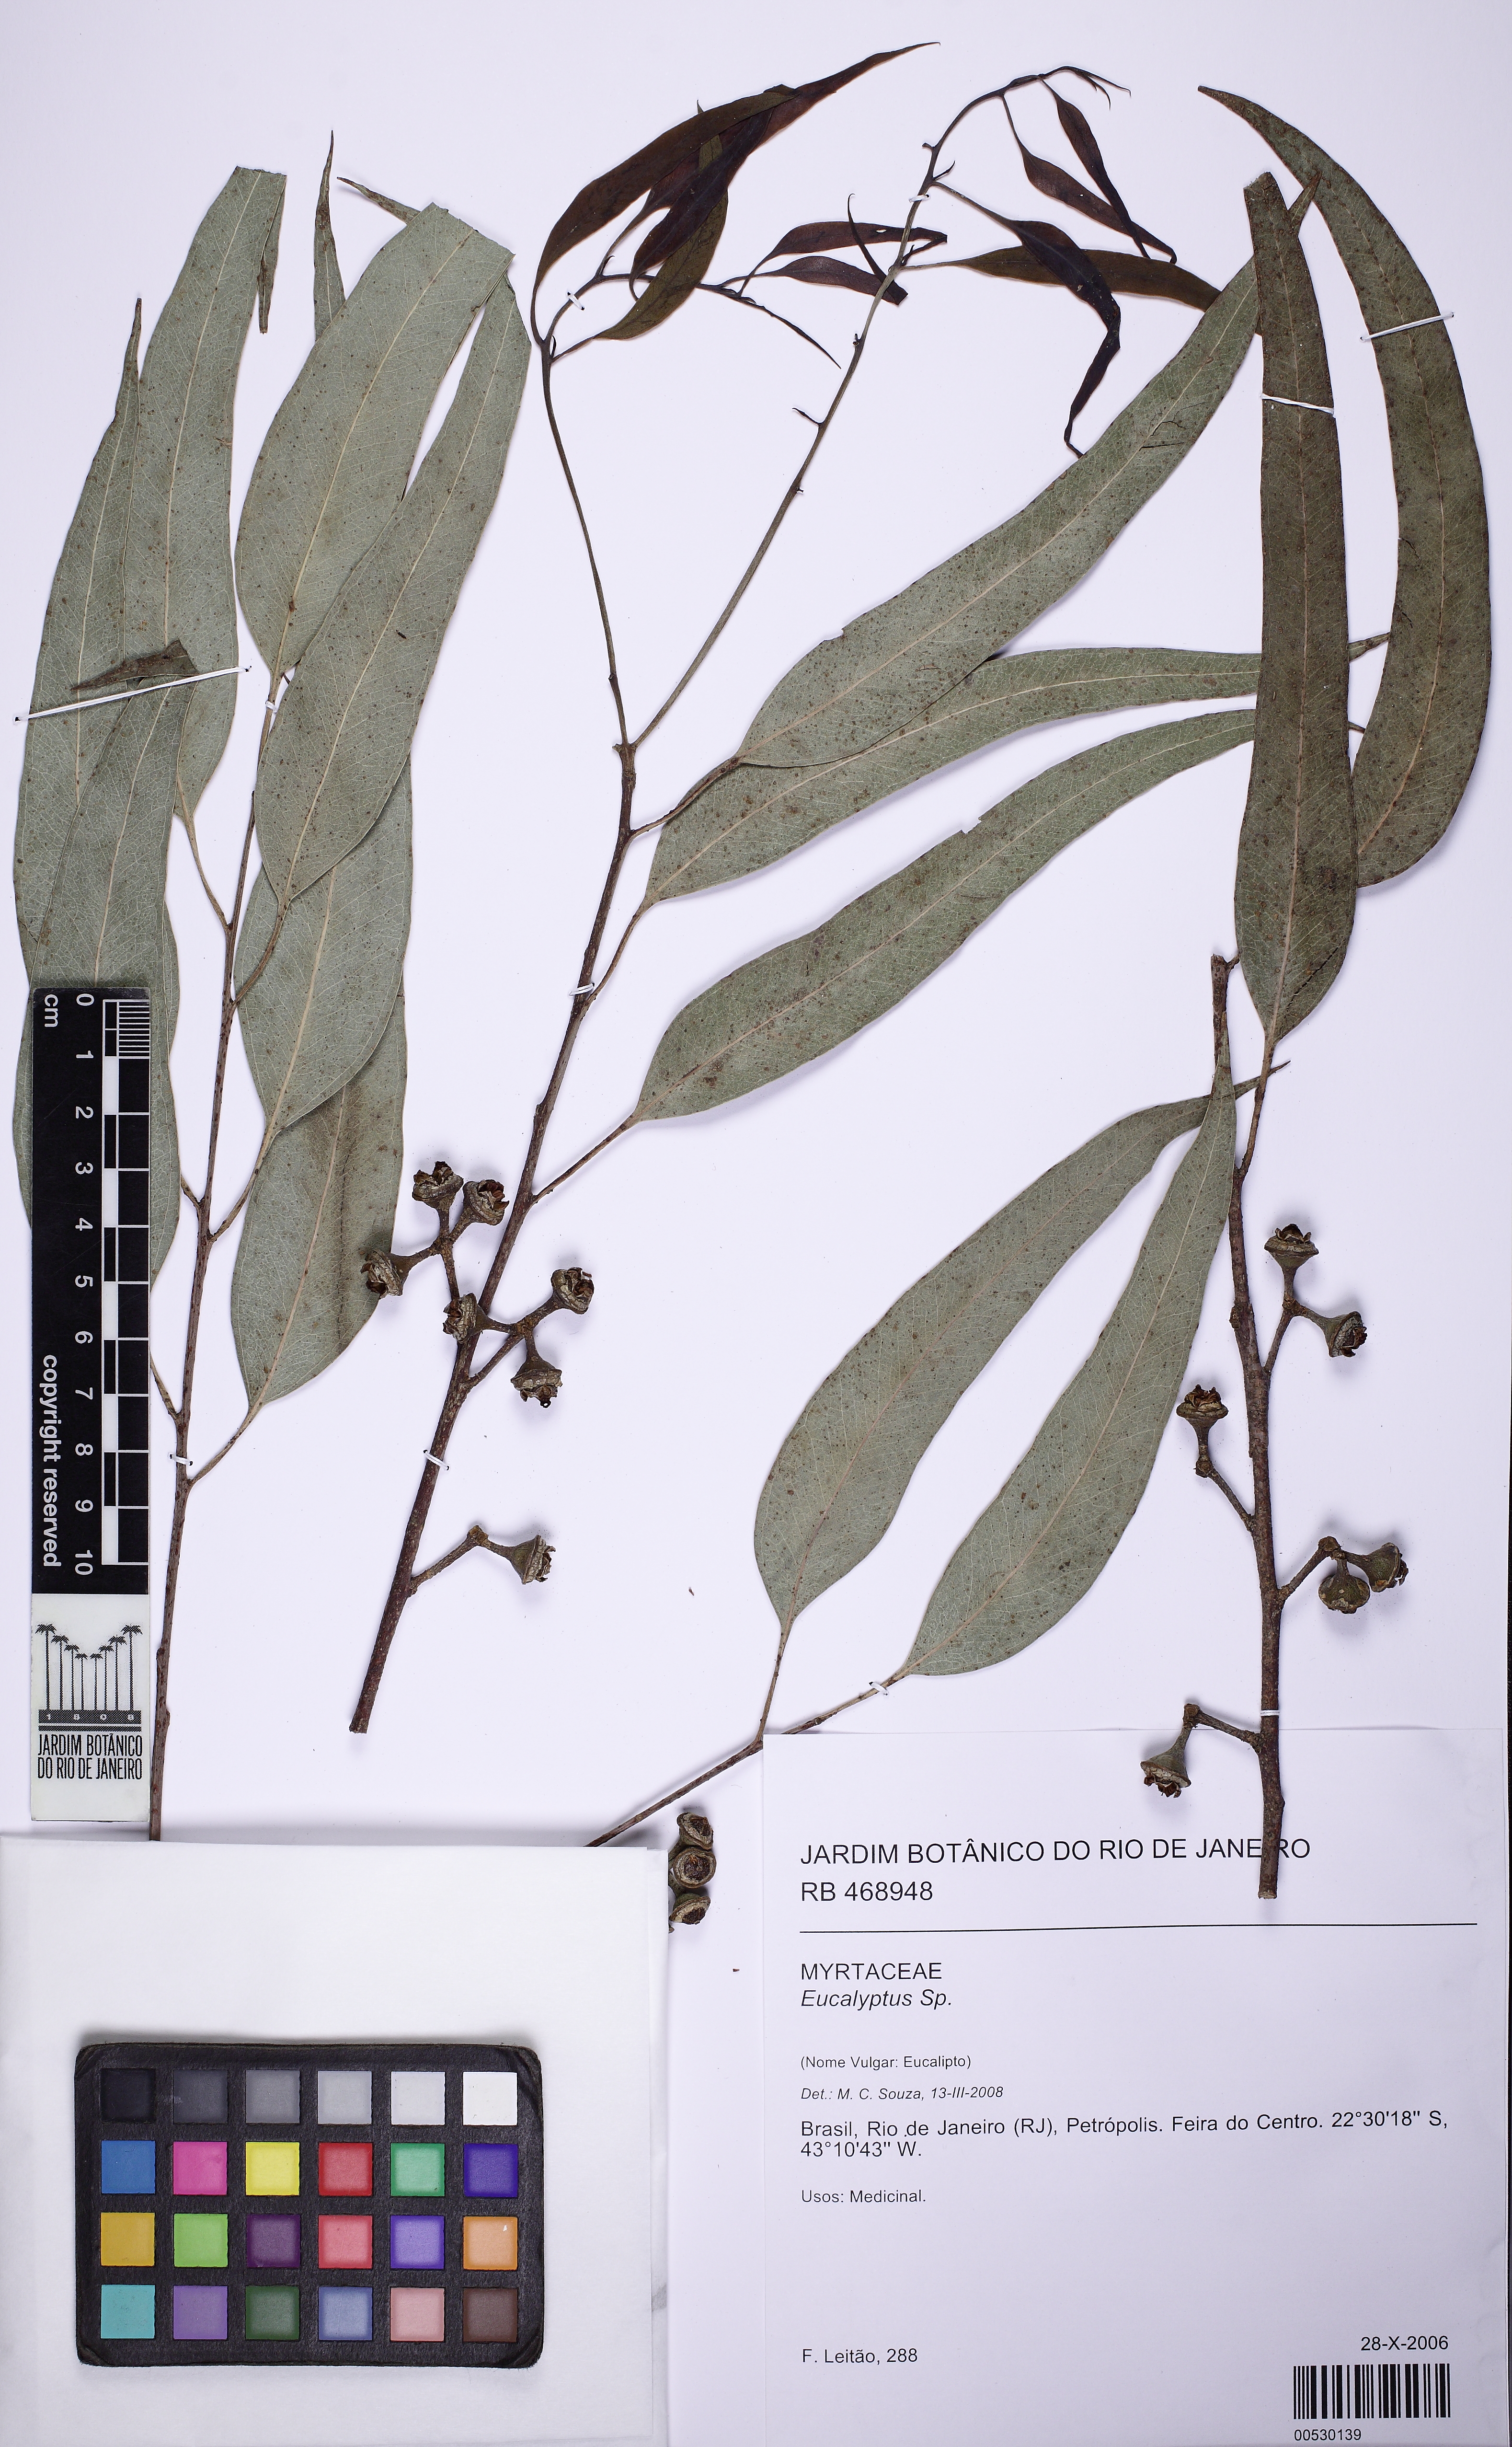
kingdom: Plantae
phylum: Tracheophyta
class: Magnoliopsida
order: Myrtales
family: Myrtaceae
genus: Eucalyptus
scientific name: Eucalyptus
